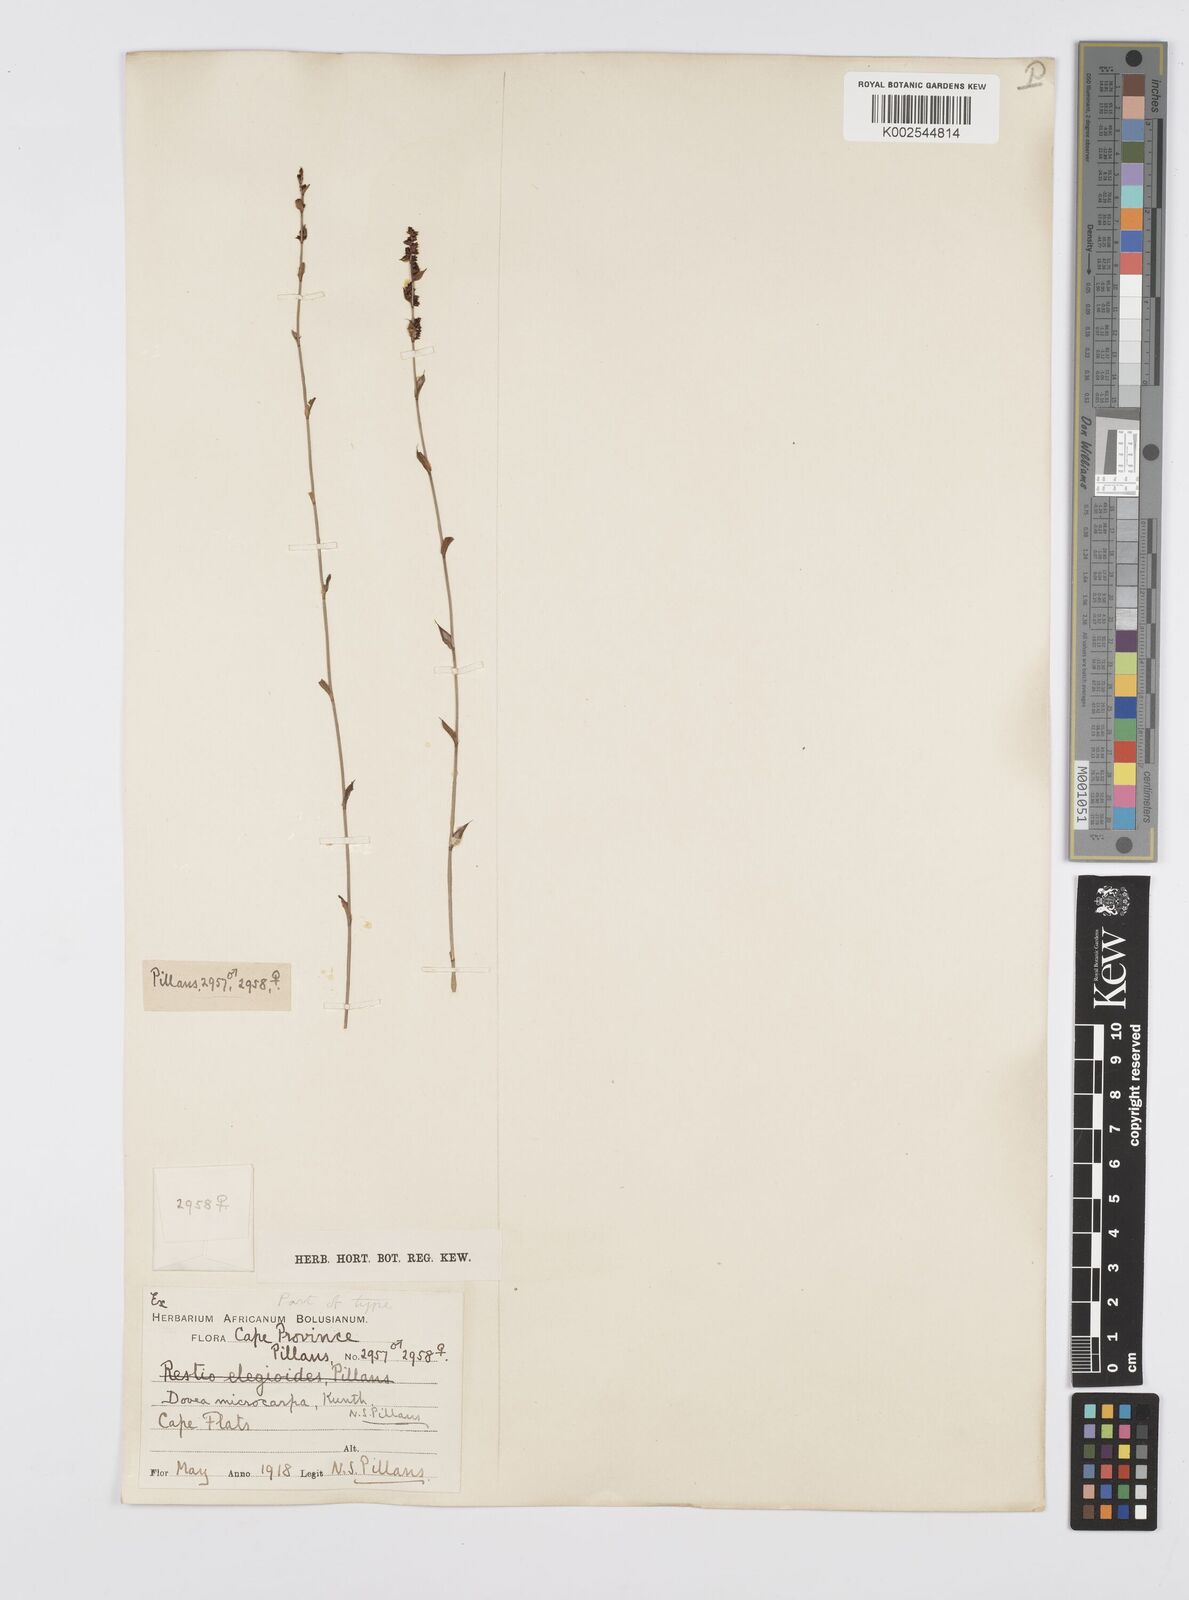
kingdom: Plantae
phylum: Tracheophyta
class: Liliopsida
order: Poales
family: Restionaceae
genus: Elegia
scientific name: Elegia microcarpa
